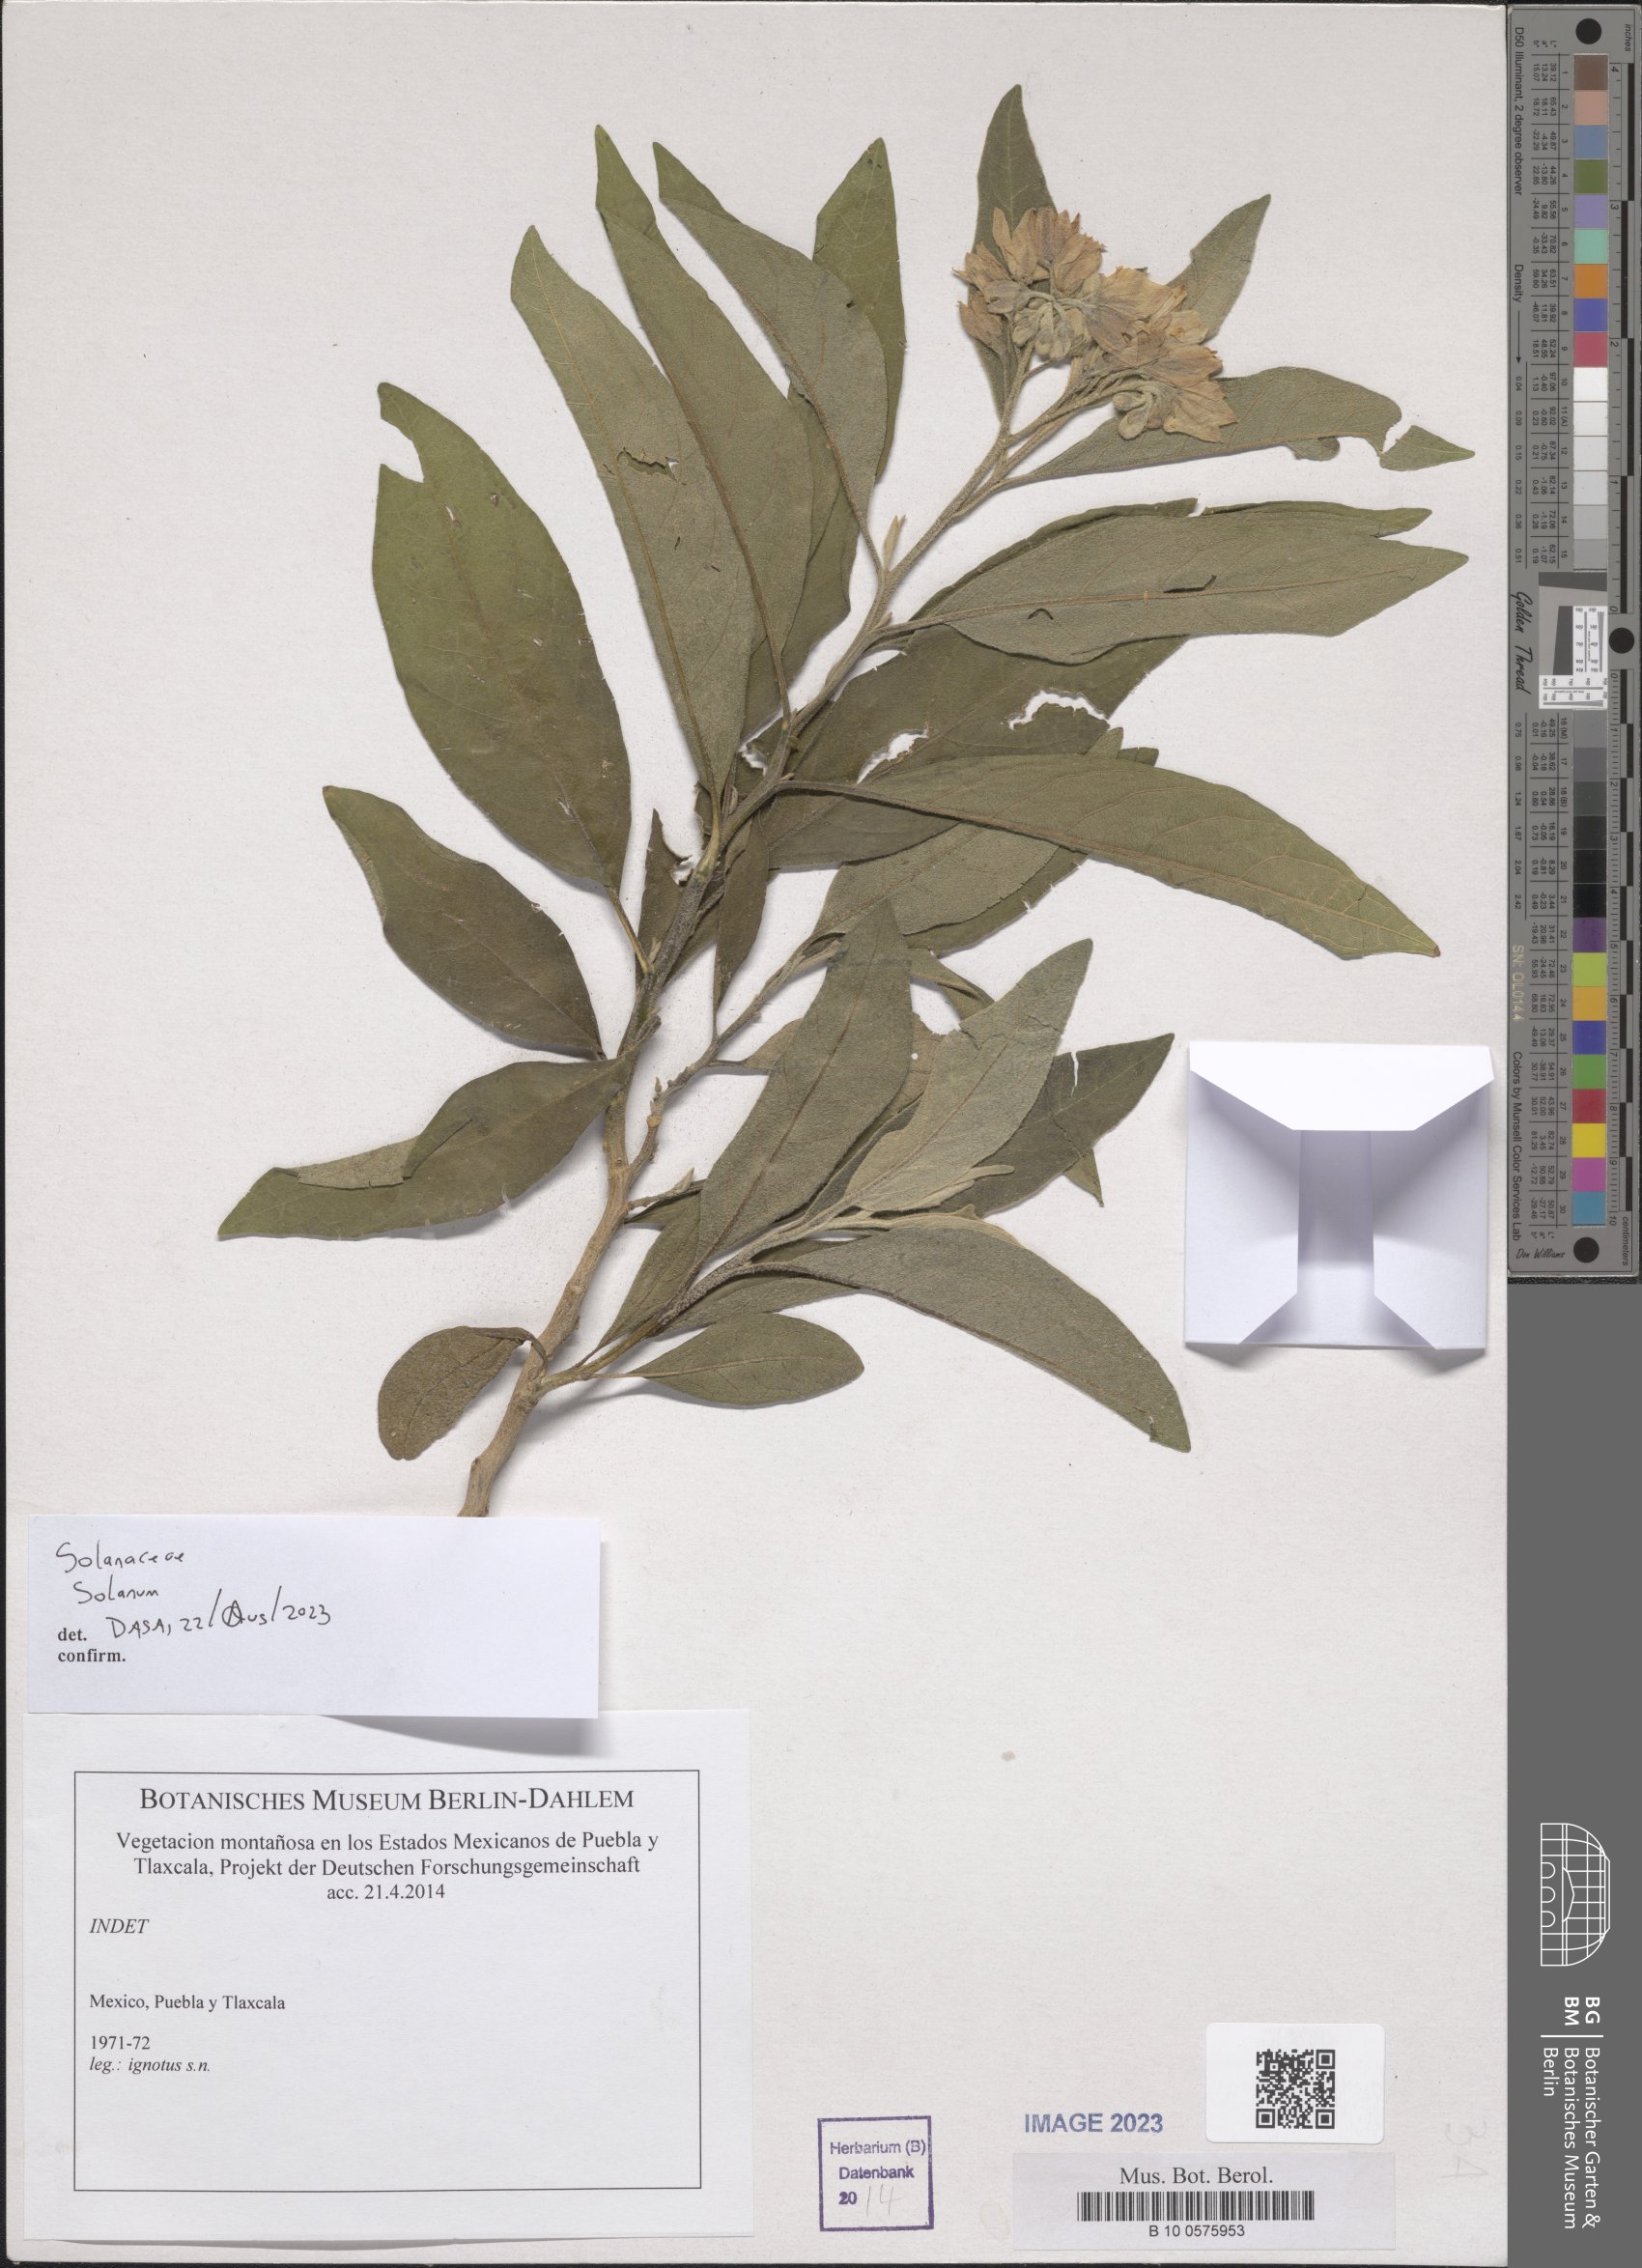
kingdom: Plantae
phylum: Tracheophyta
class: Magnoliopsida
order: Solanales
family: Solanaceae
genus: Solanum
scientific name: Solanum
